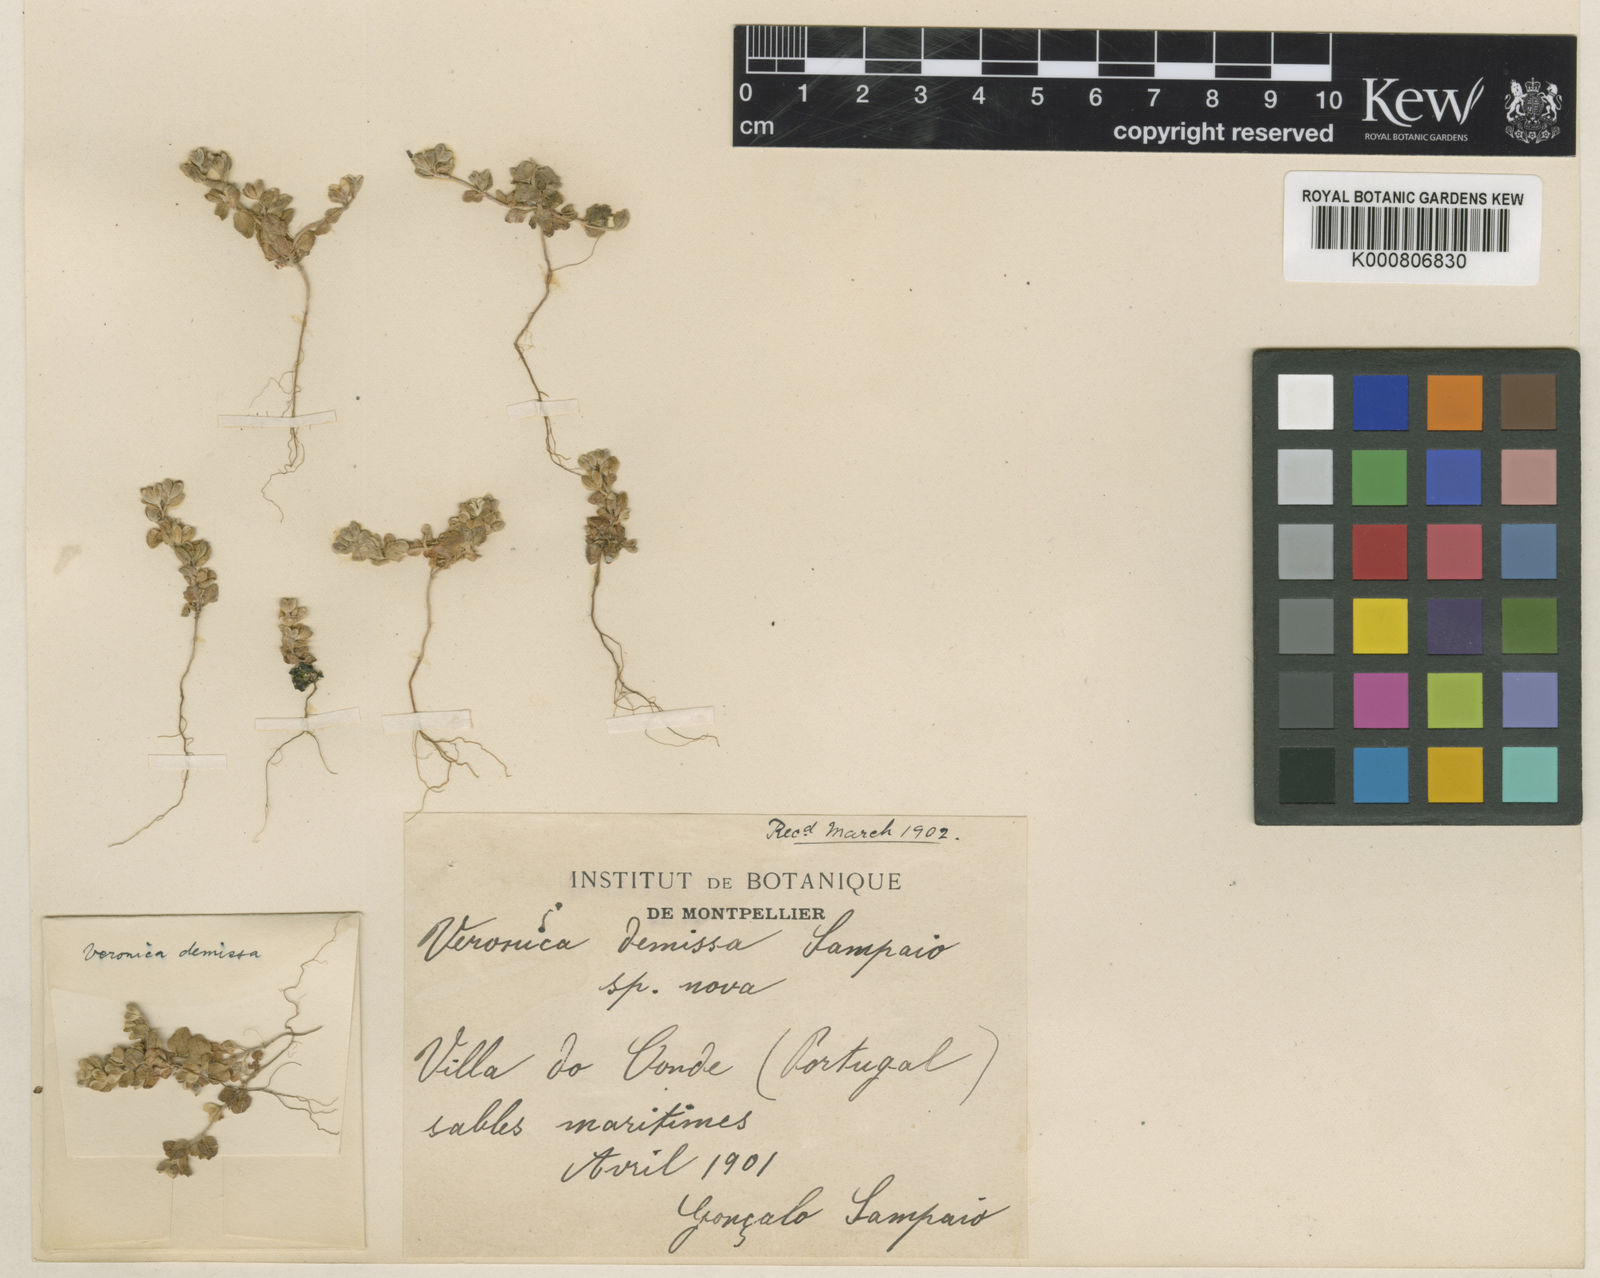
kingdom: Plantae
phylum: Tracheophyta
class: Magnoliopsida
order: Lamiales
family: Plantaginaceae
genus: Veronica
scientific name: Veronica arvensis
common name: Corn speedwell
